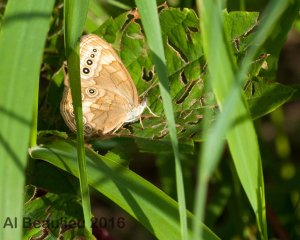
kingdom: Animalia
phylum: Arthropoda
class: Insecta
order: Lepidoptera
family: Nymphalidae
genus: Lethe
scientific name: Lethe eurydice
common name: Eyed Brown
